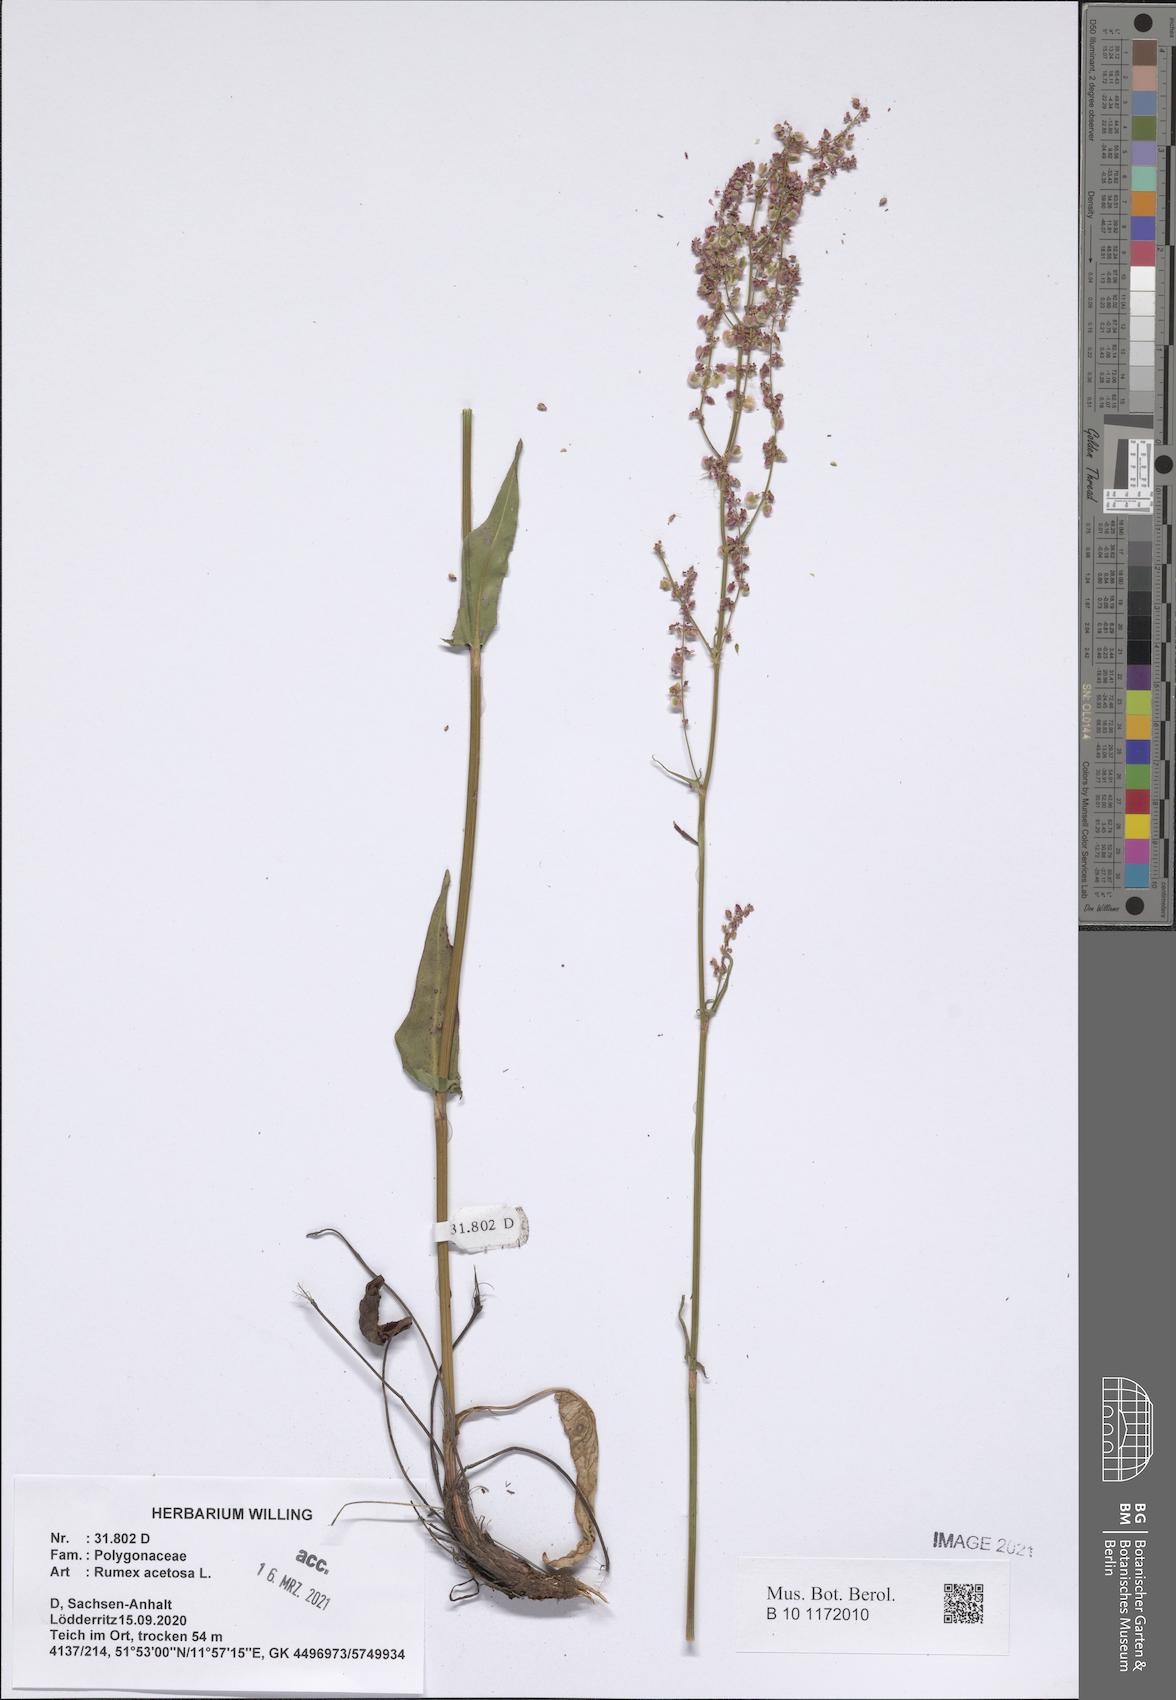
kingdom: Plantae
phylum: Tracheophyta
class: Magnoliopsida
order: Caryophyllales
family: Polygonaceae
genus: Rumex
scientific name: Rumex acetosa
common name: Garden sorrel
